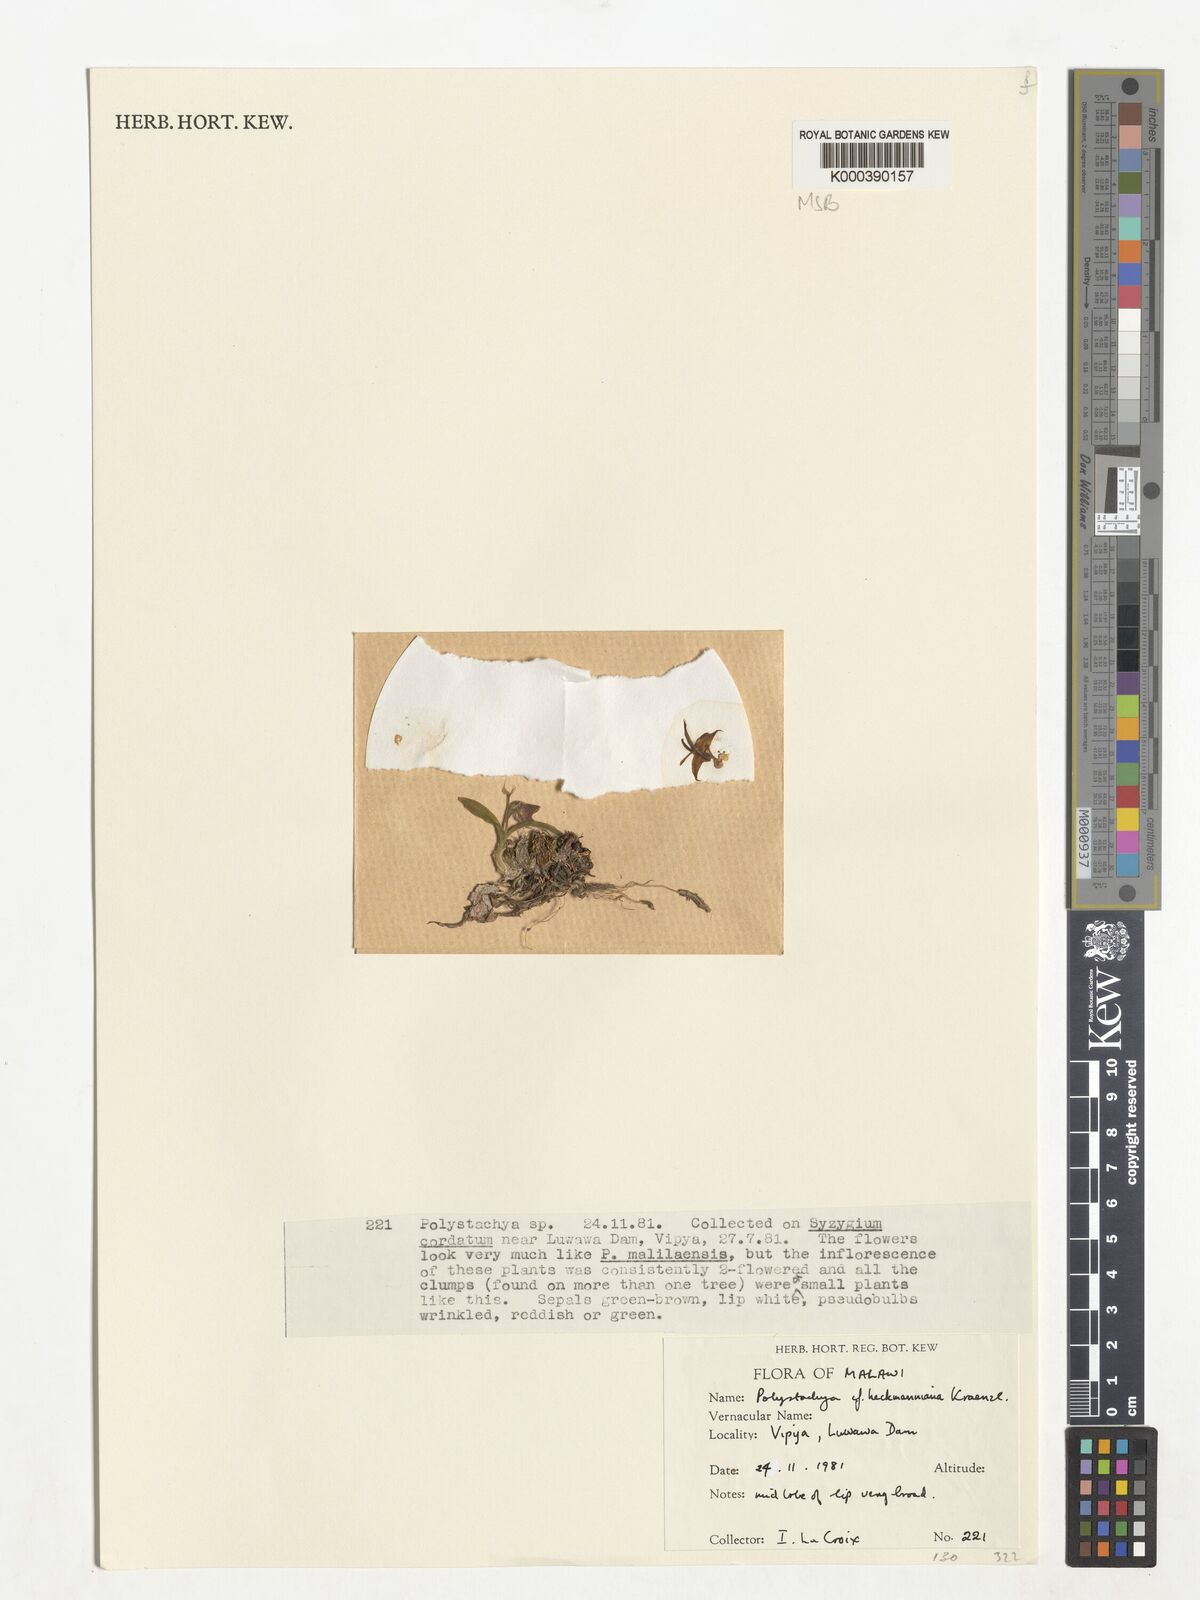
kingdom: Plantae
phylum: Tracheophyta
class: Liliopsida
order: Asparagales
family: Orchidaceae
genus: Polystachya
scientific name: Polystachya heckmanniana
